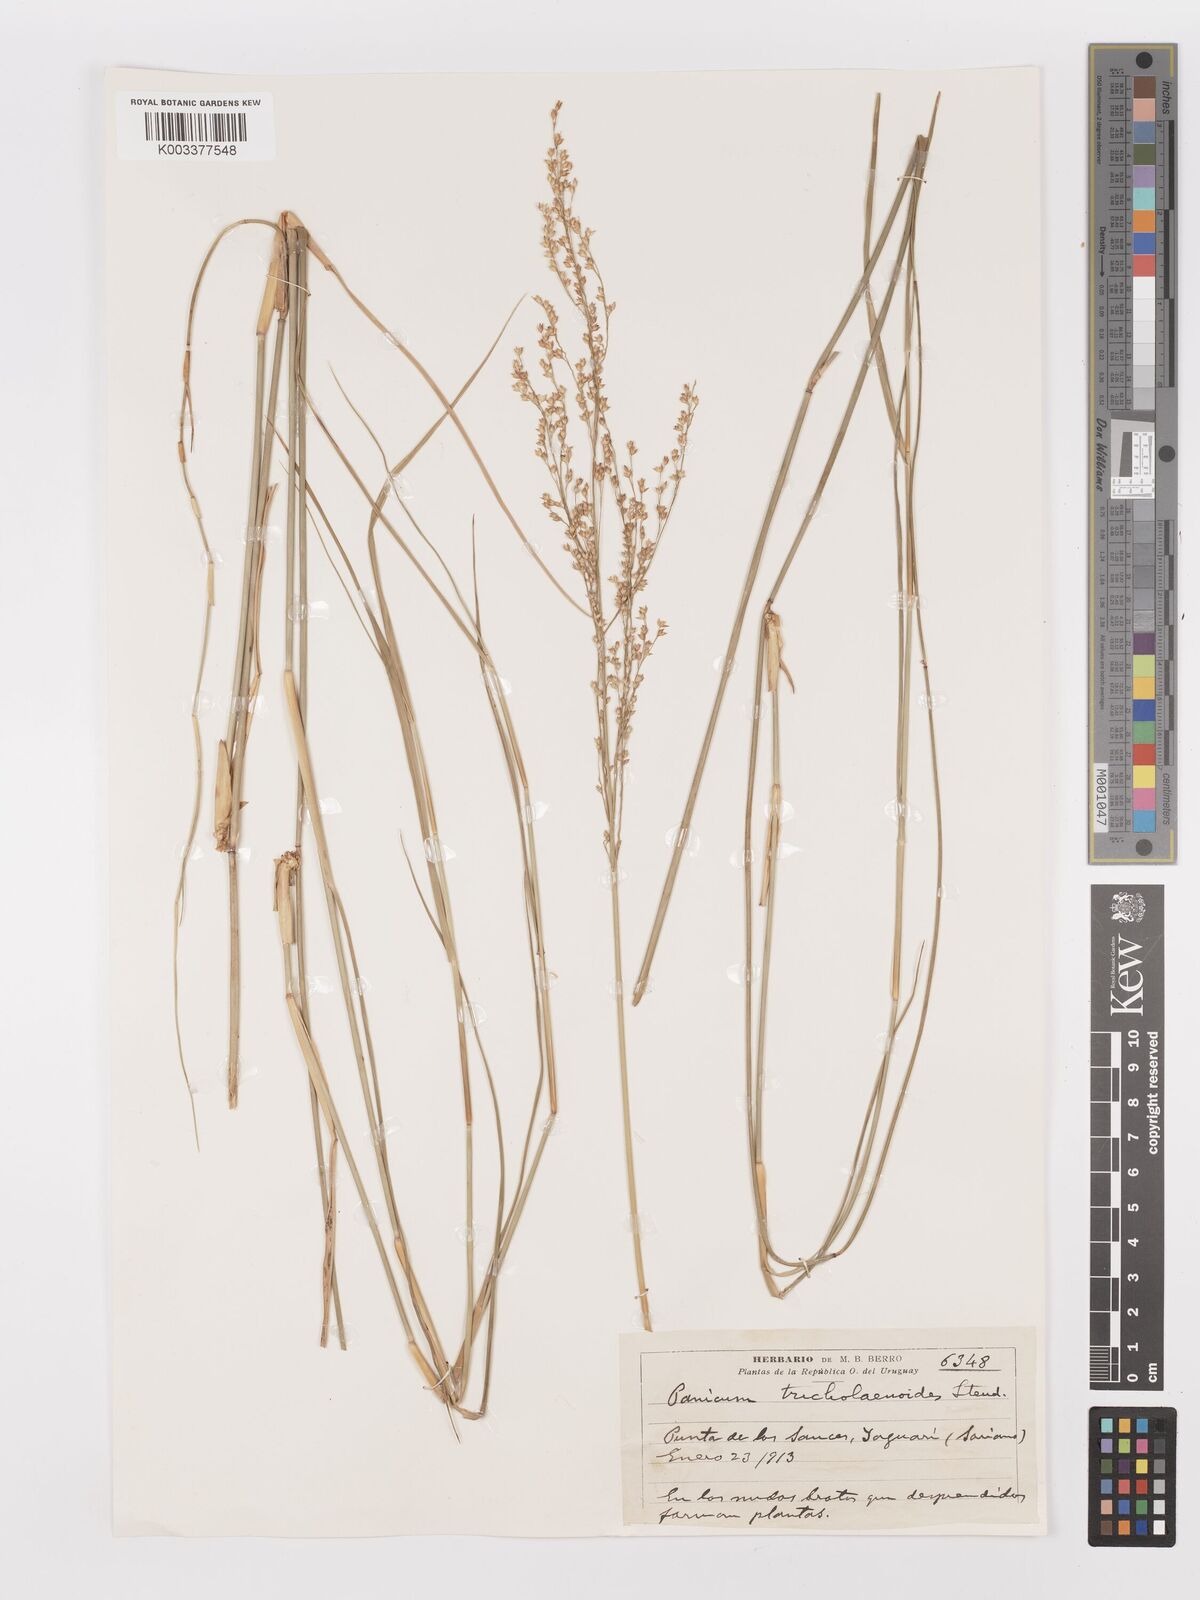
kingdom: Plantae
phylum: Tracheophyta
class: Liliopsida
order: Poales
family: Poaceae
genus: Panicum
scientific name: Panicum tricholaenoides
